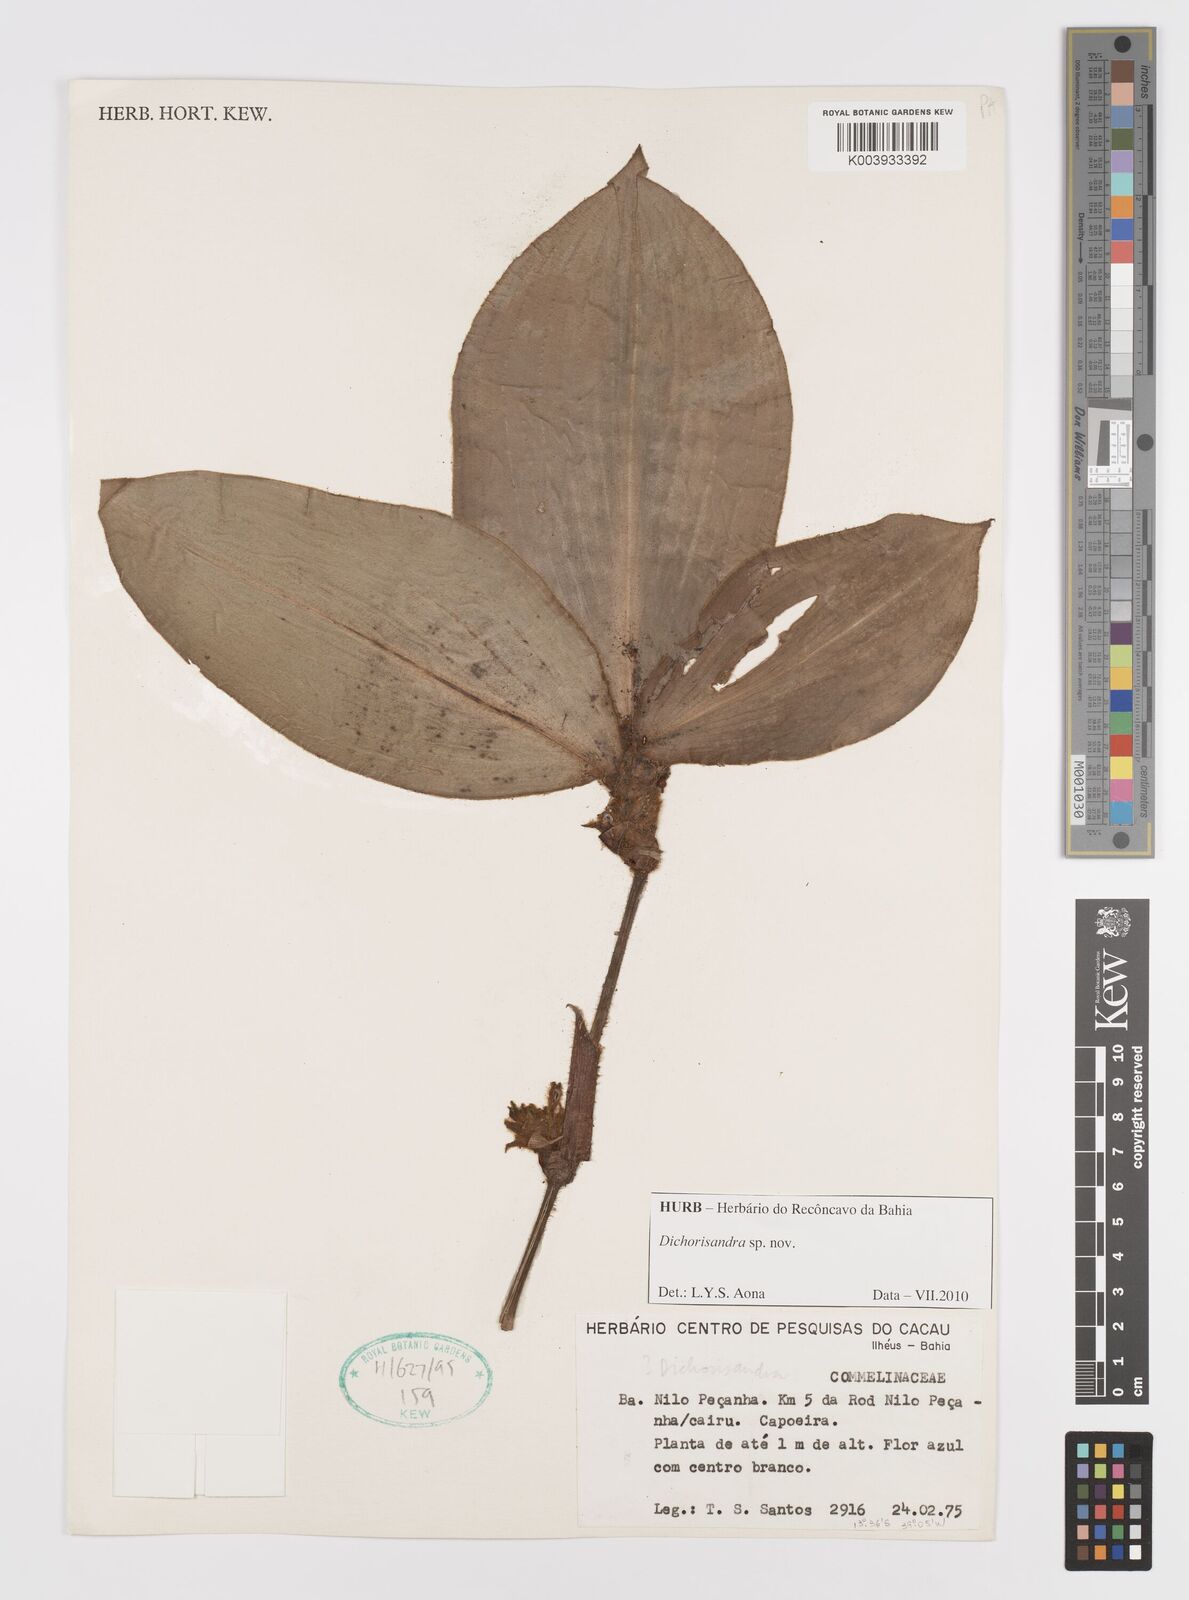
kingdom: Plantae
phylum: Tracheophyta
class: Liliopsida
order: Commelinales
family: Commelinaceae
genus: Dichorisandra
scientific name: Dichorisandra
